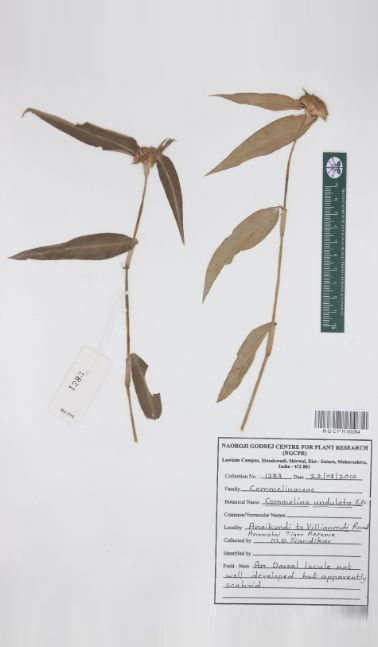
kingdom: Plantae
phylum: Tracheophyta
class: Liliopsida
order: Commelinales
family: Commelinaceae
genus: Commelina
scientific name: Commelina undulata
